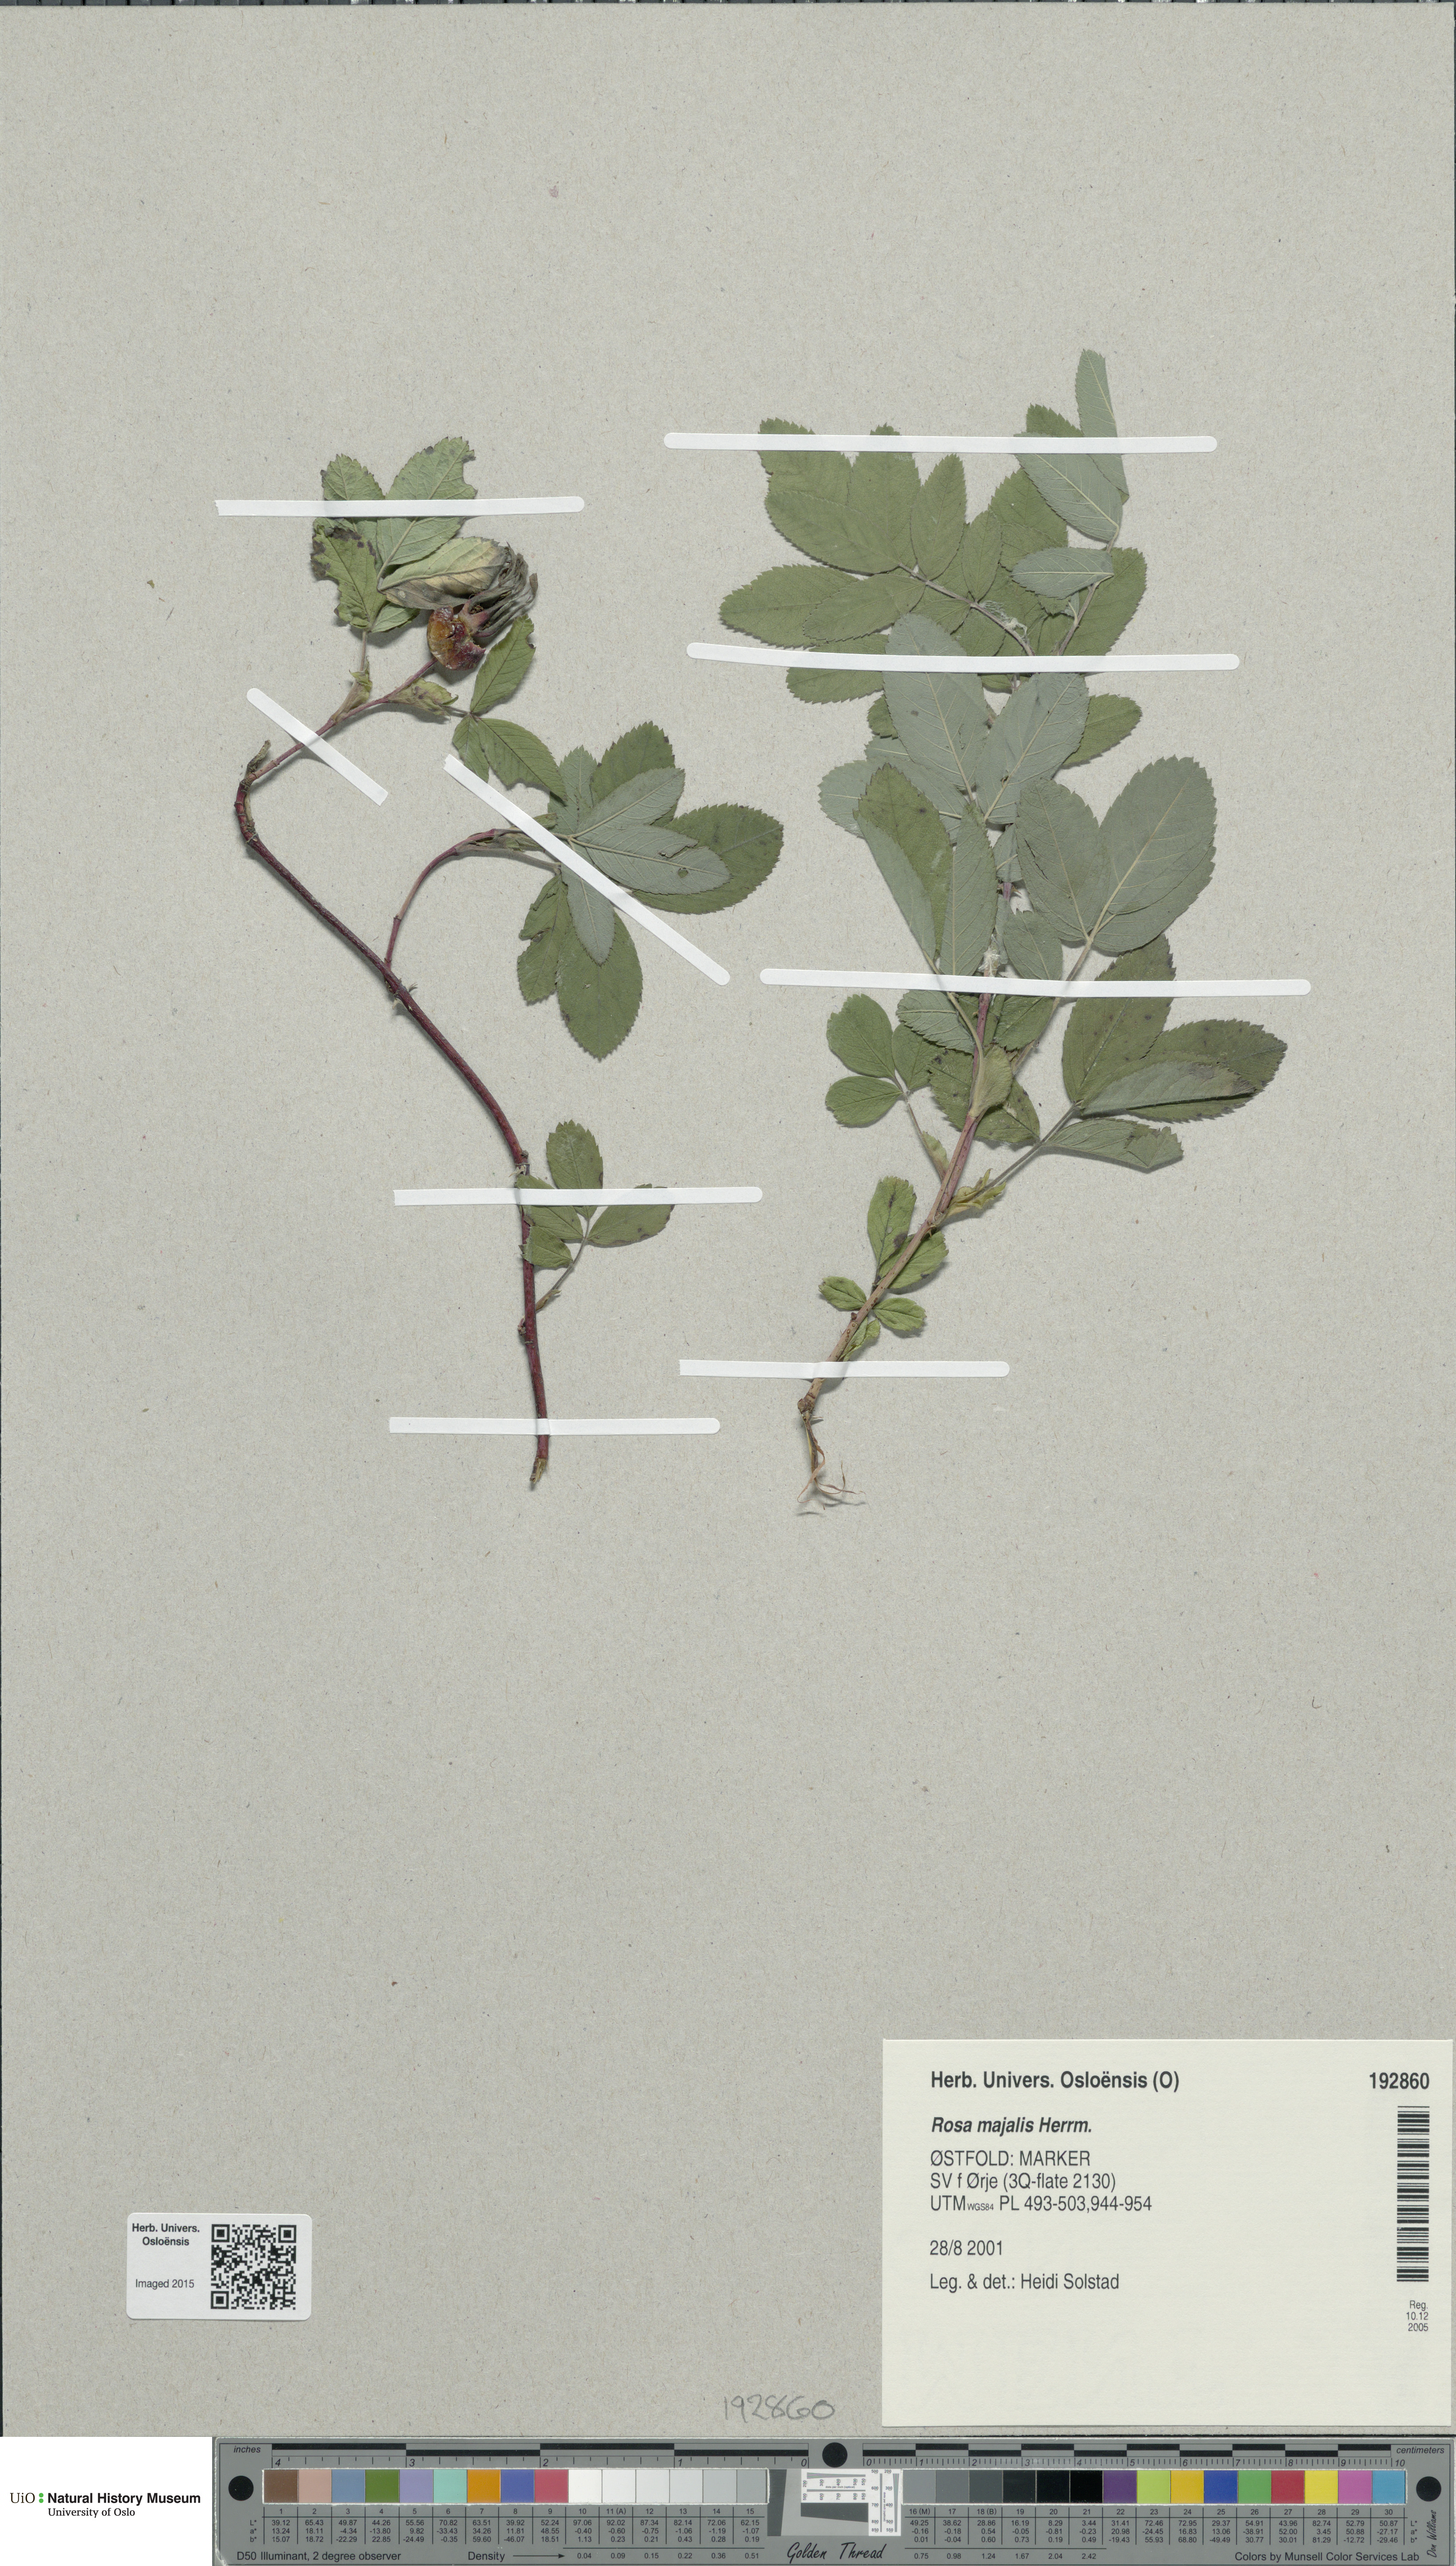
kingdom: Plantae
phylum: Tracheophyta
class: Magnoliopsida
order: Rosales
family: Rosaceae
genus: Rosa
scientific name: Rosa majalis
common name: Cinnamon rose
